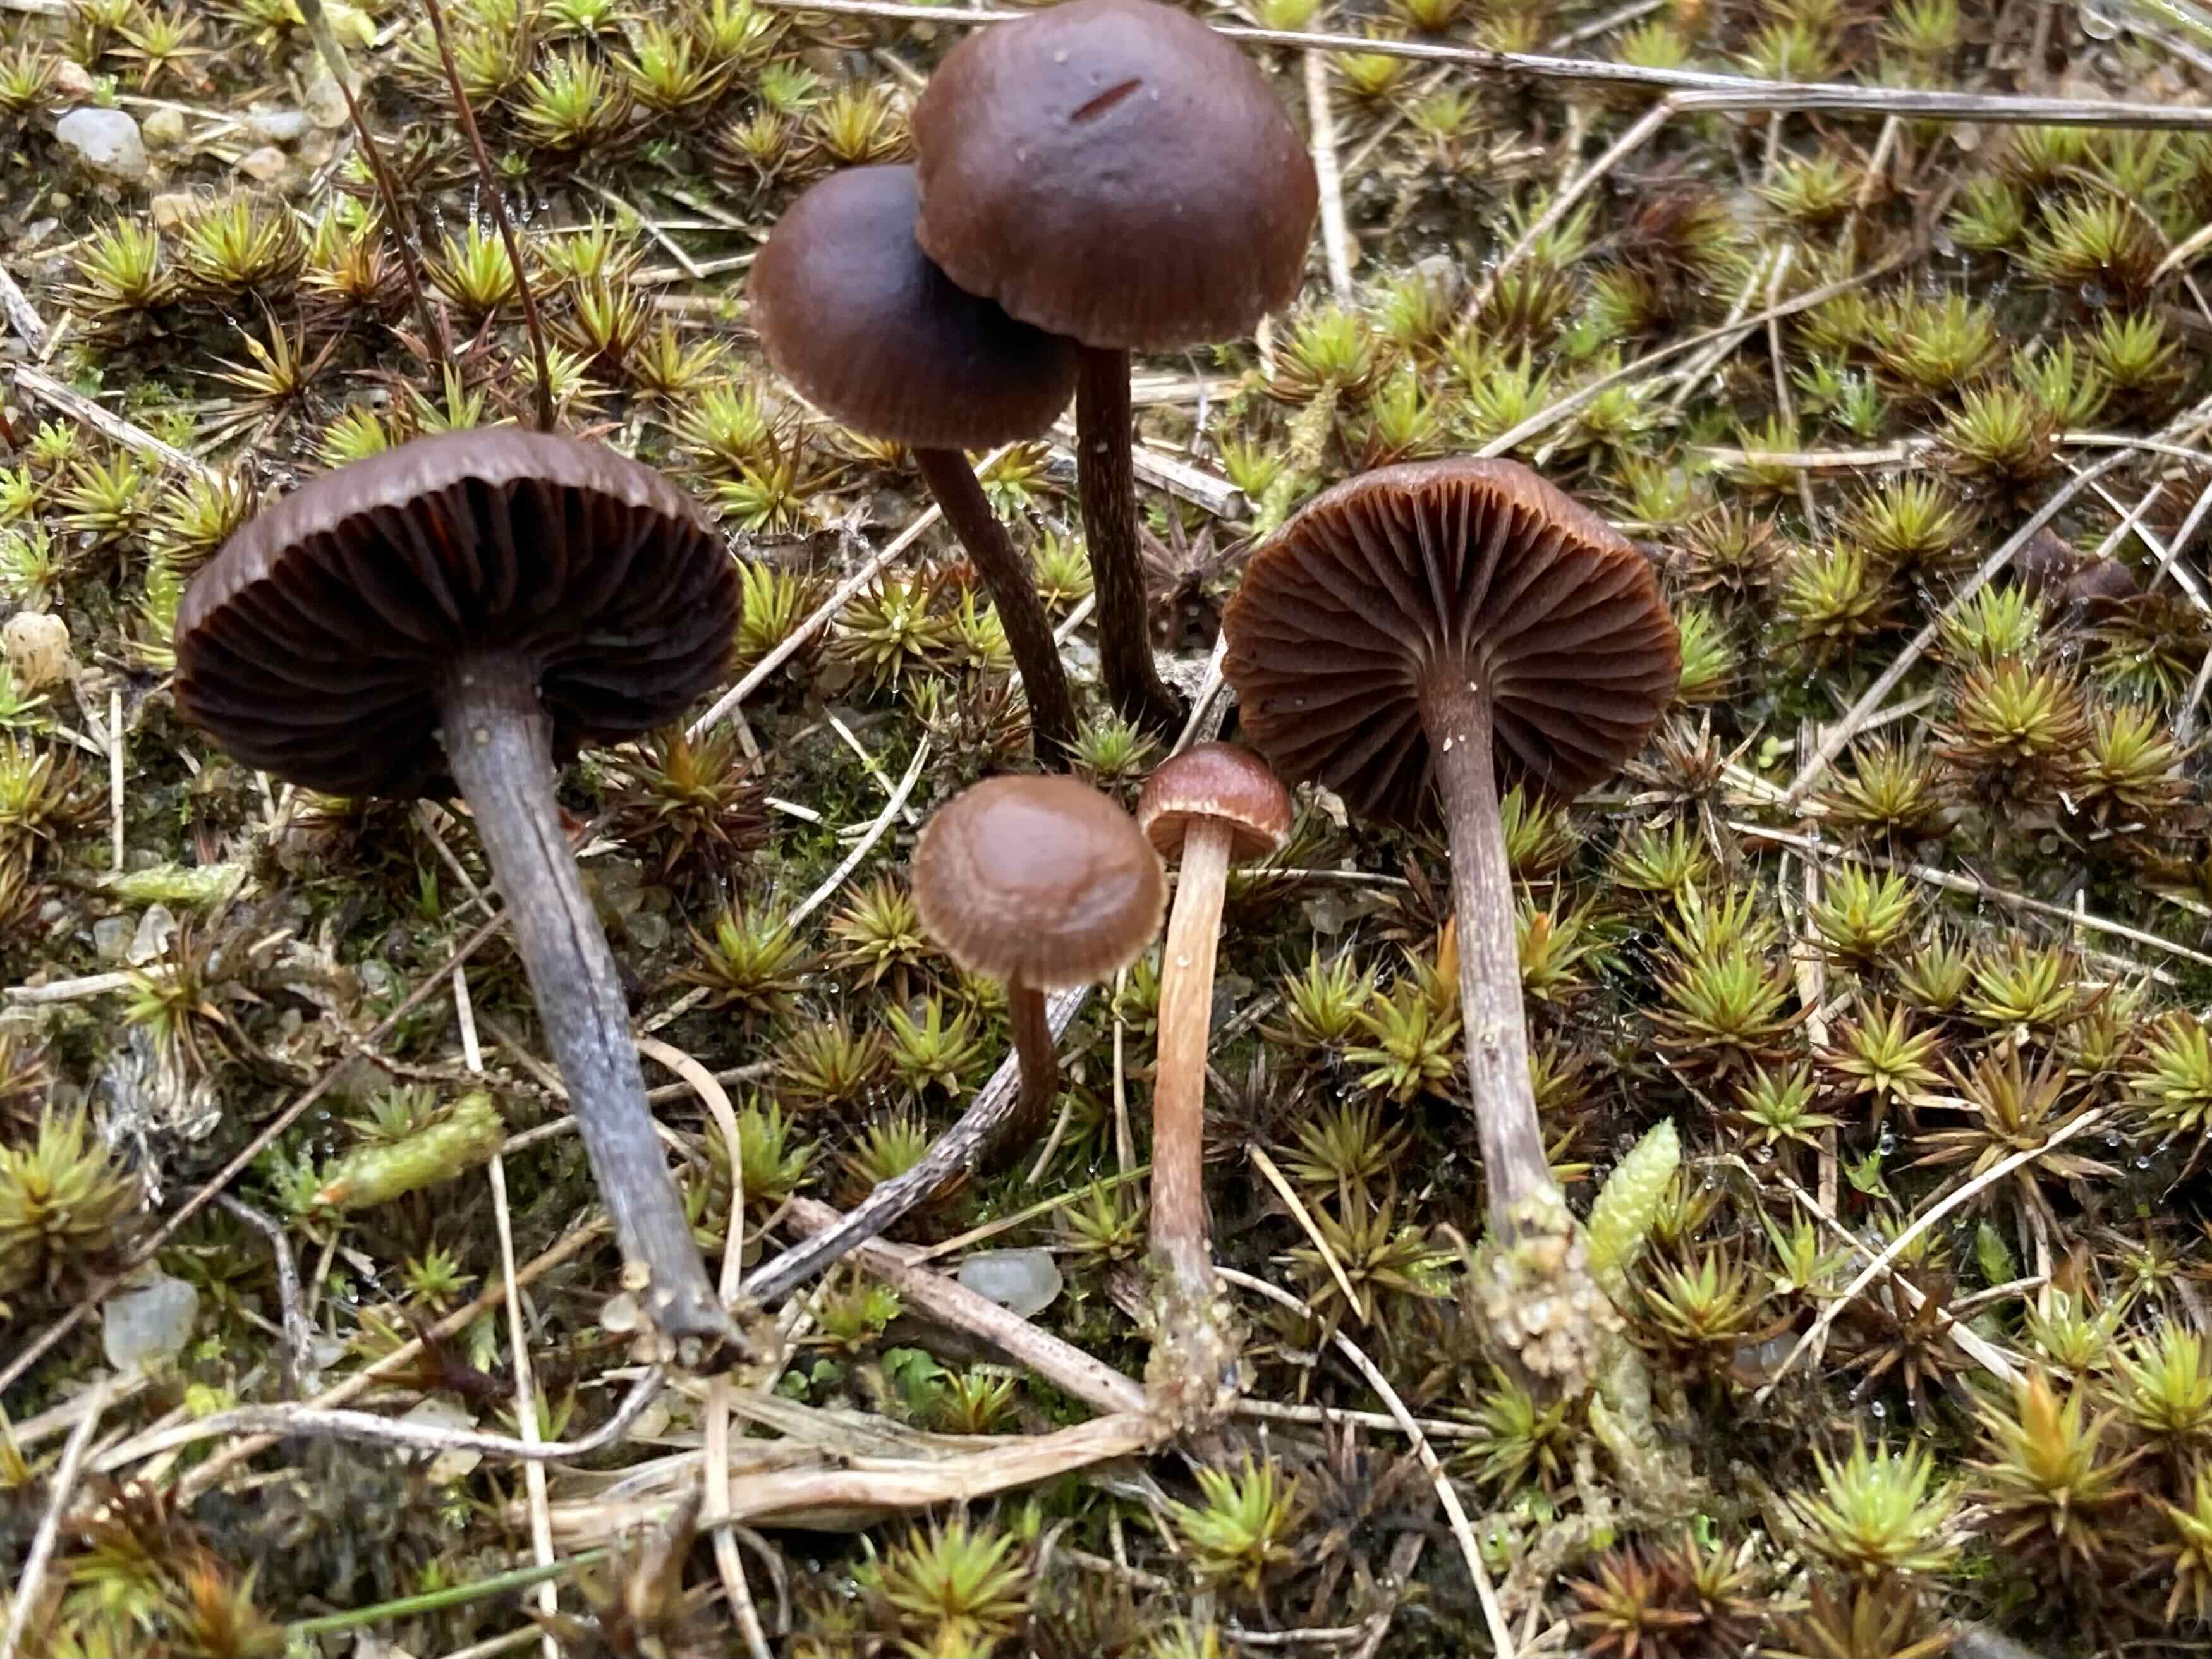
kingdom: Fungi
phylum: Basidiomycota
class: Agaricomycetes
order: Agaricales
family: Strophariaceae
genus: Deconica
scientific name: Deconica montana
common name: rødbrun stråhat
